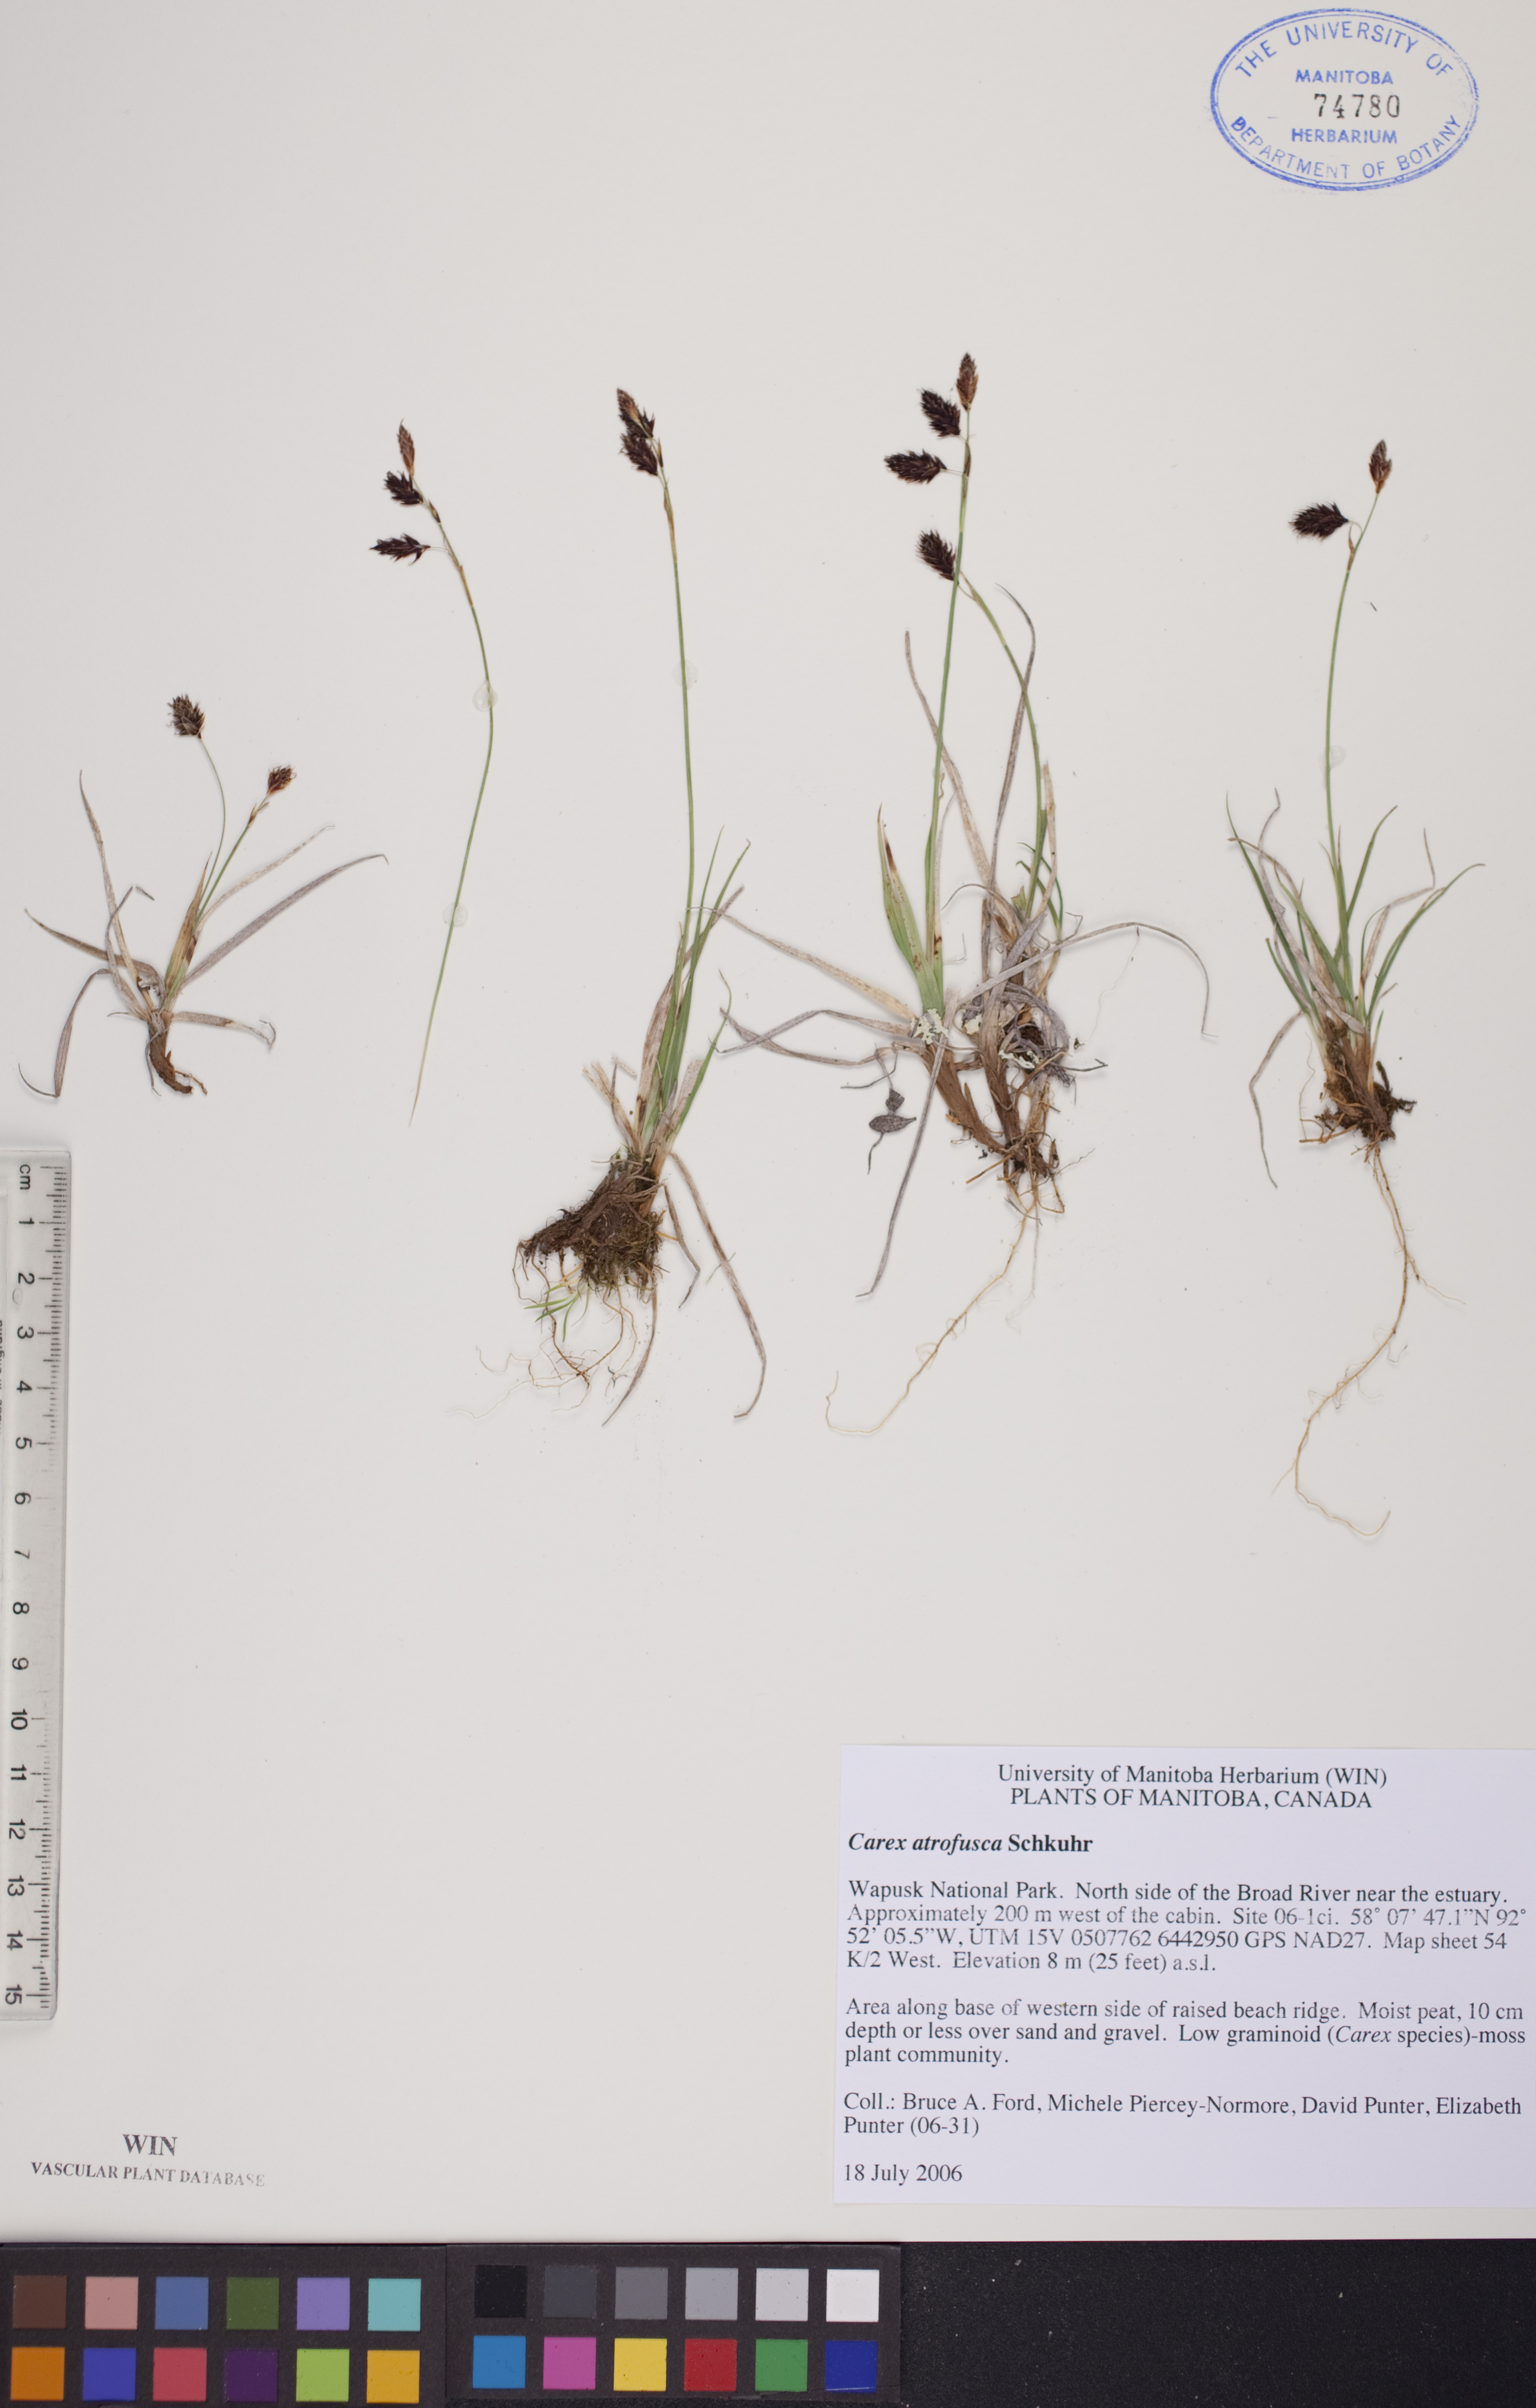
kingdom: Plantae
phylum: Tracheophyta
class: Liliopsida
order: Poales
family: Cyperaceae
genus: Carex
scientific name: Carex pichinchensis
